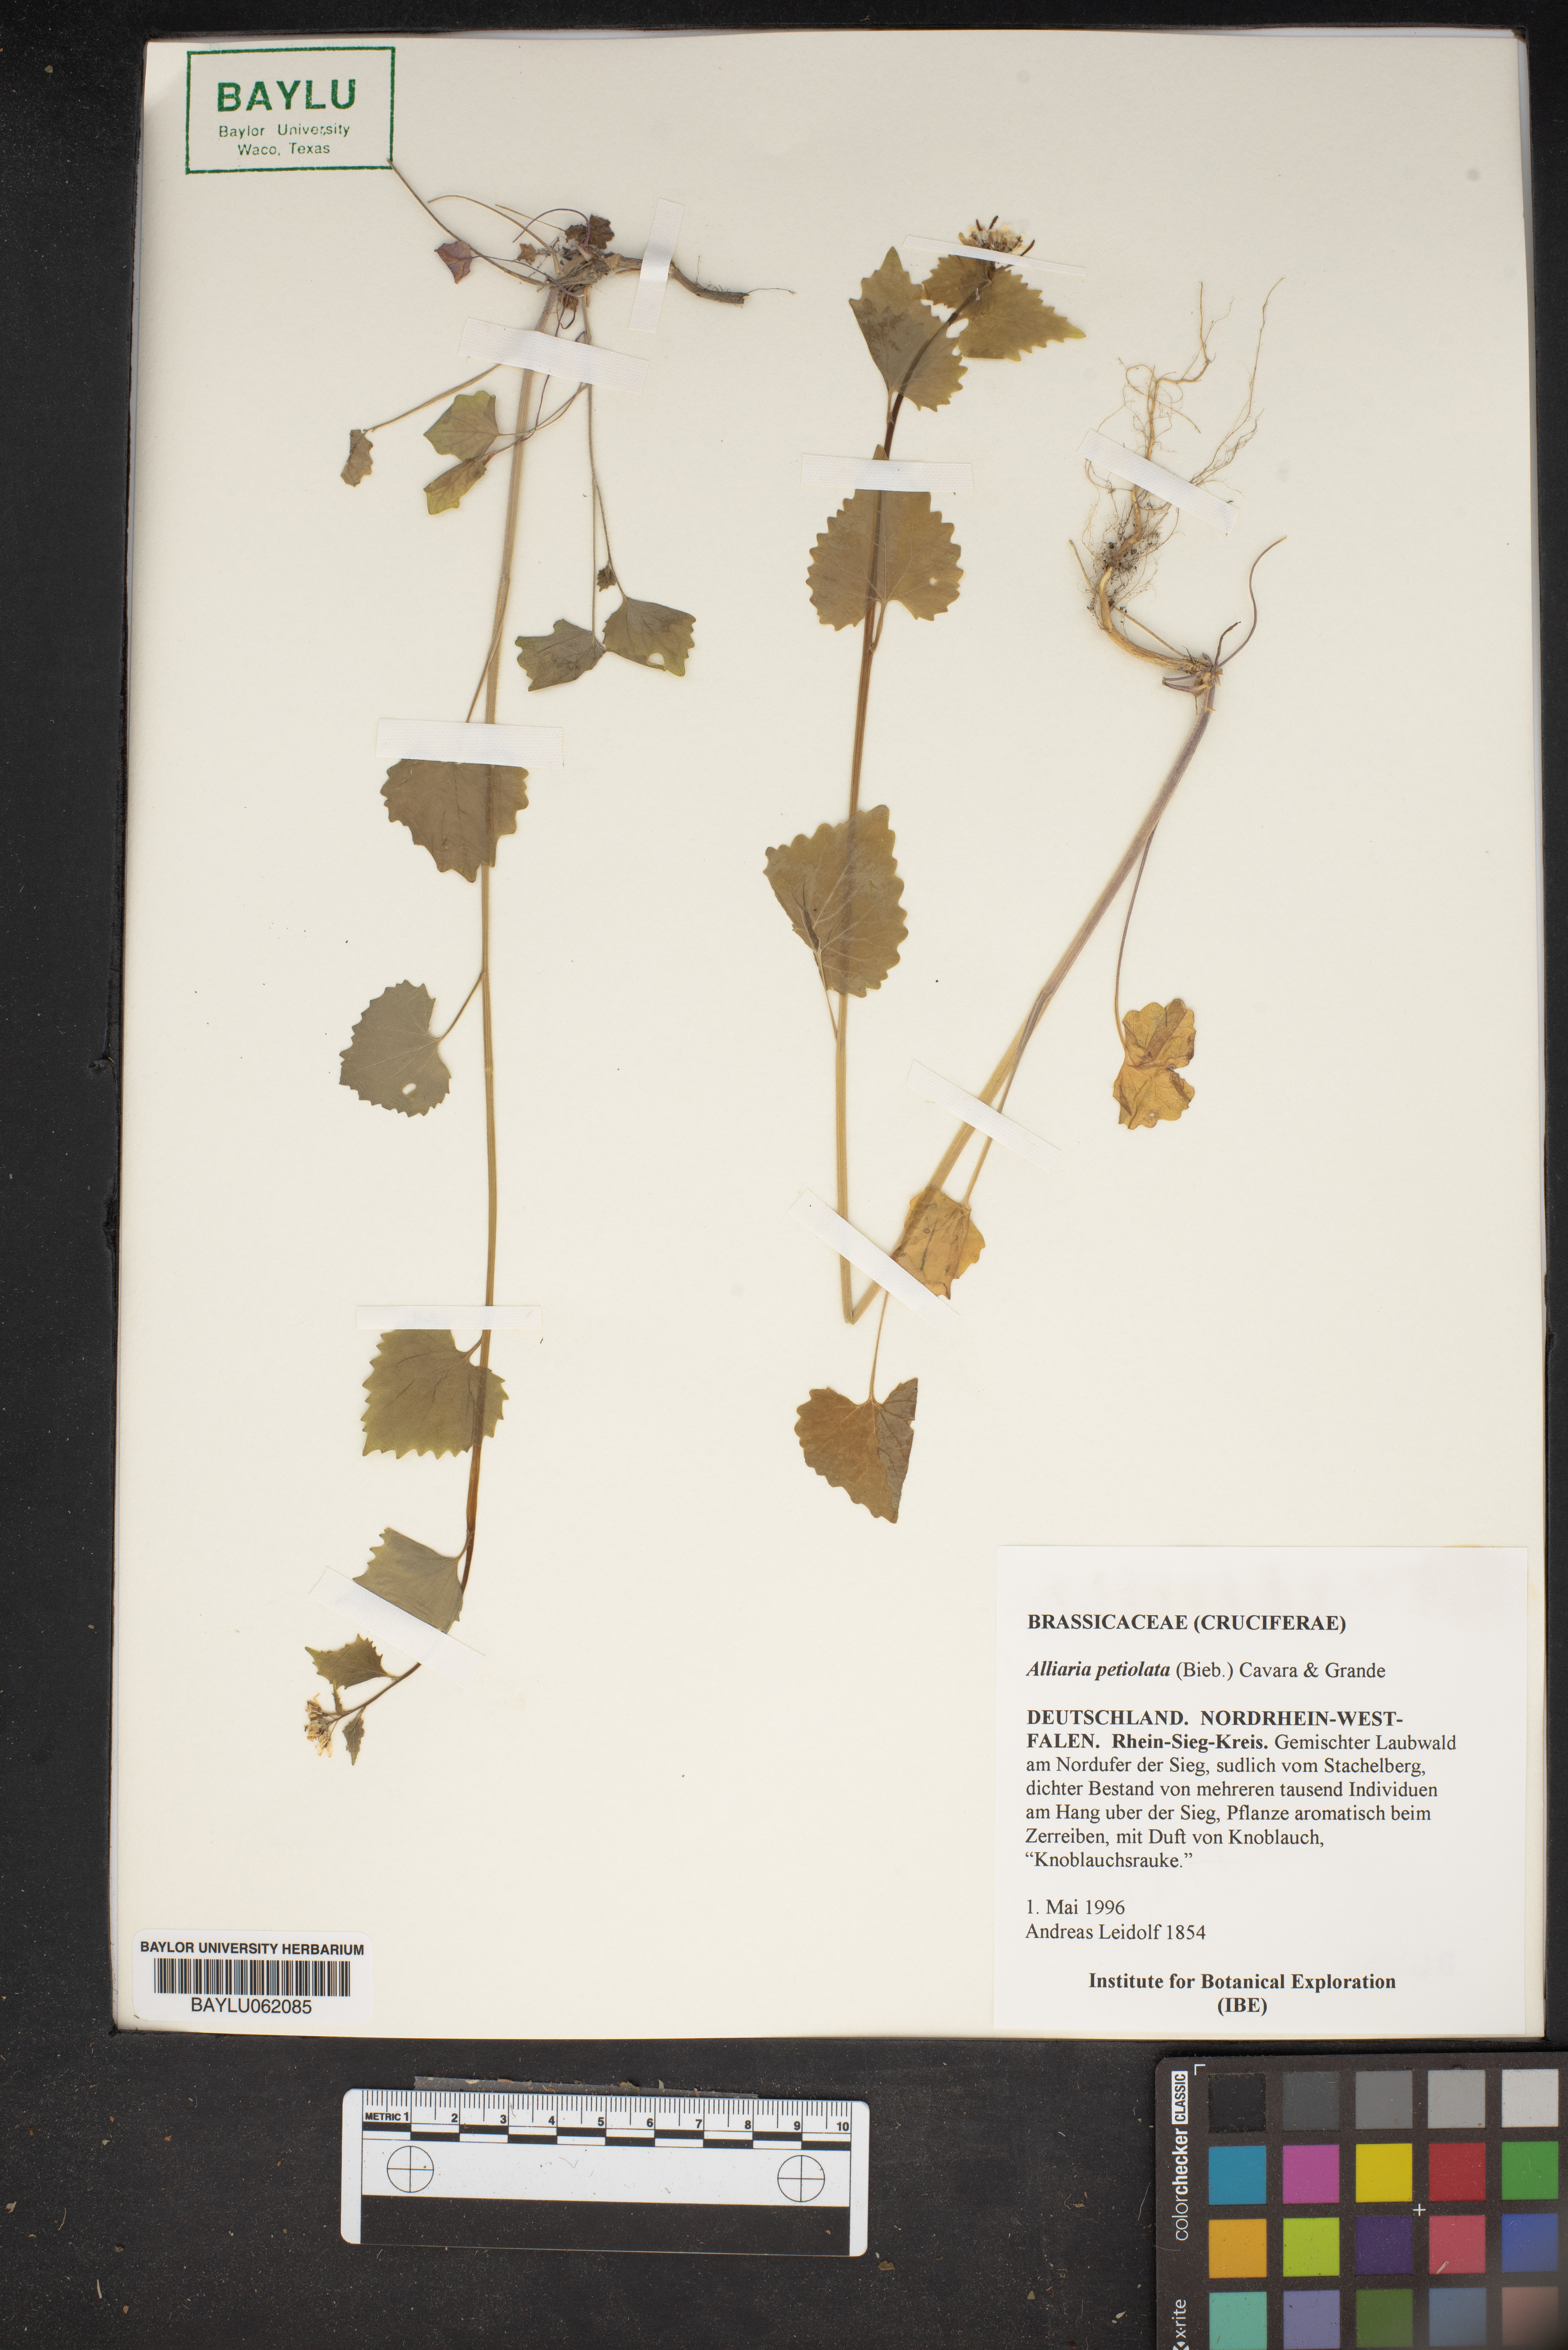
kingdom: Plantae
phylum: Tracheophyta
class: Magnoliopsida
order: Brassicales
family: Brassicaceae
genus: Alliaria
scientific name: Alliaria petiolata
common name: Garlic mustard
